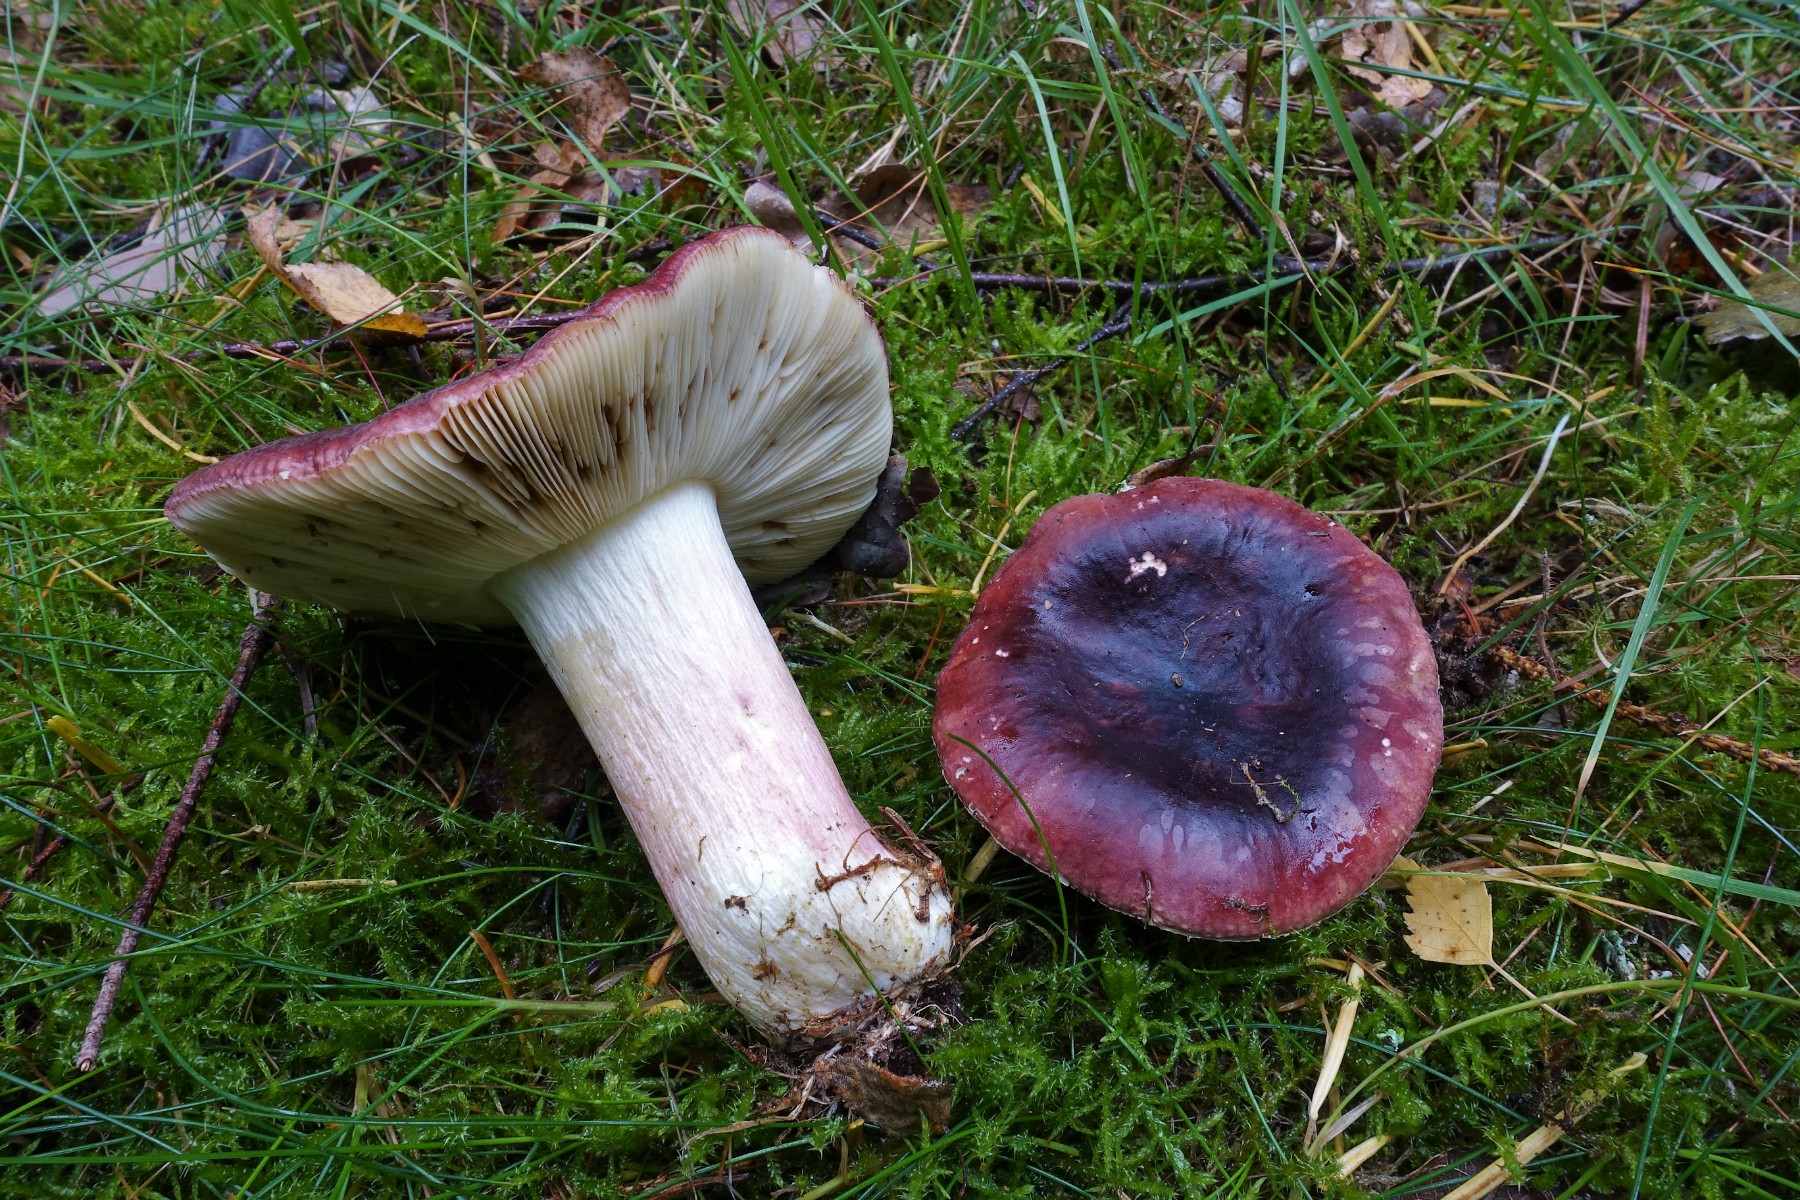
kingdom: Fungi
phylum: Basidiomycota
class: Agaricomycetes
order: Russulales
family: Russulaceae
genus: Russula
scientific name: Russula sardonia
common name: citronbladet skørhat
